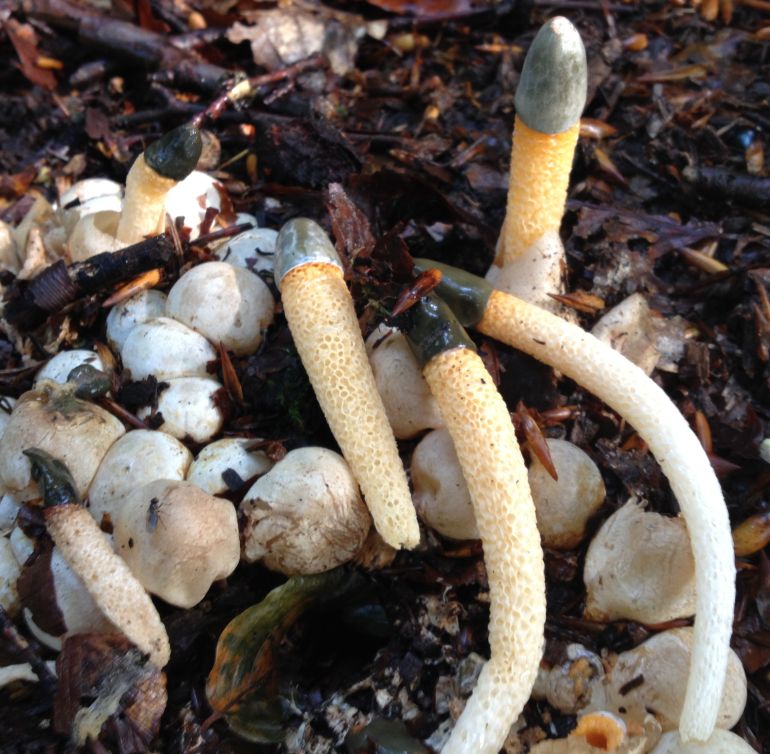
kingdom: Fungi
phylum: Basidiomycota
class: Agaricomycetes
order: Phallales
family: Phallaceae
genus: Mutinus
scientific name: Mutinus caninus
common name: hunde-stinksvamp
